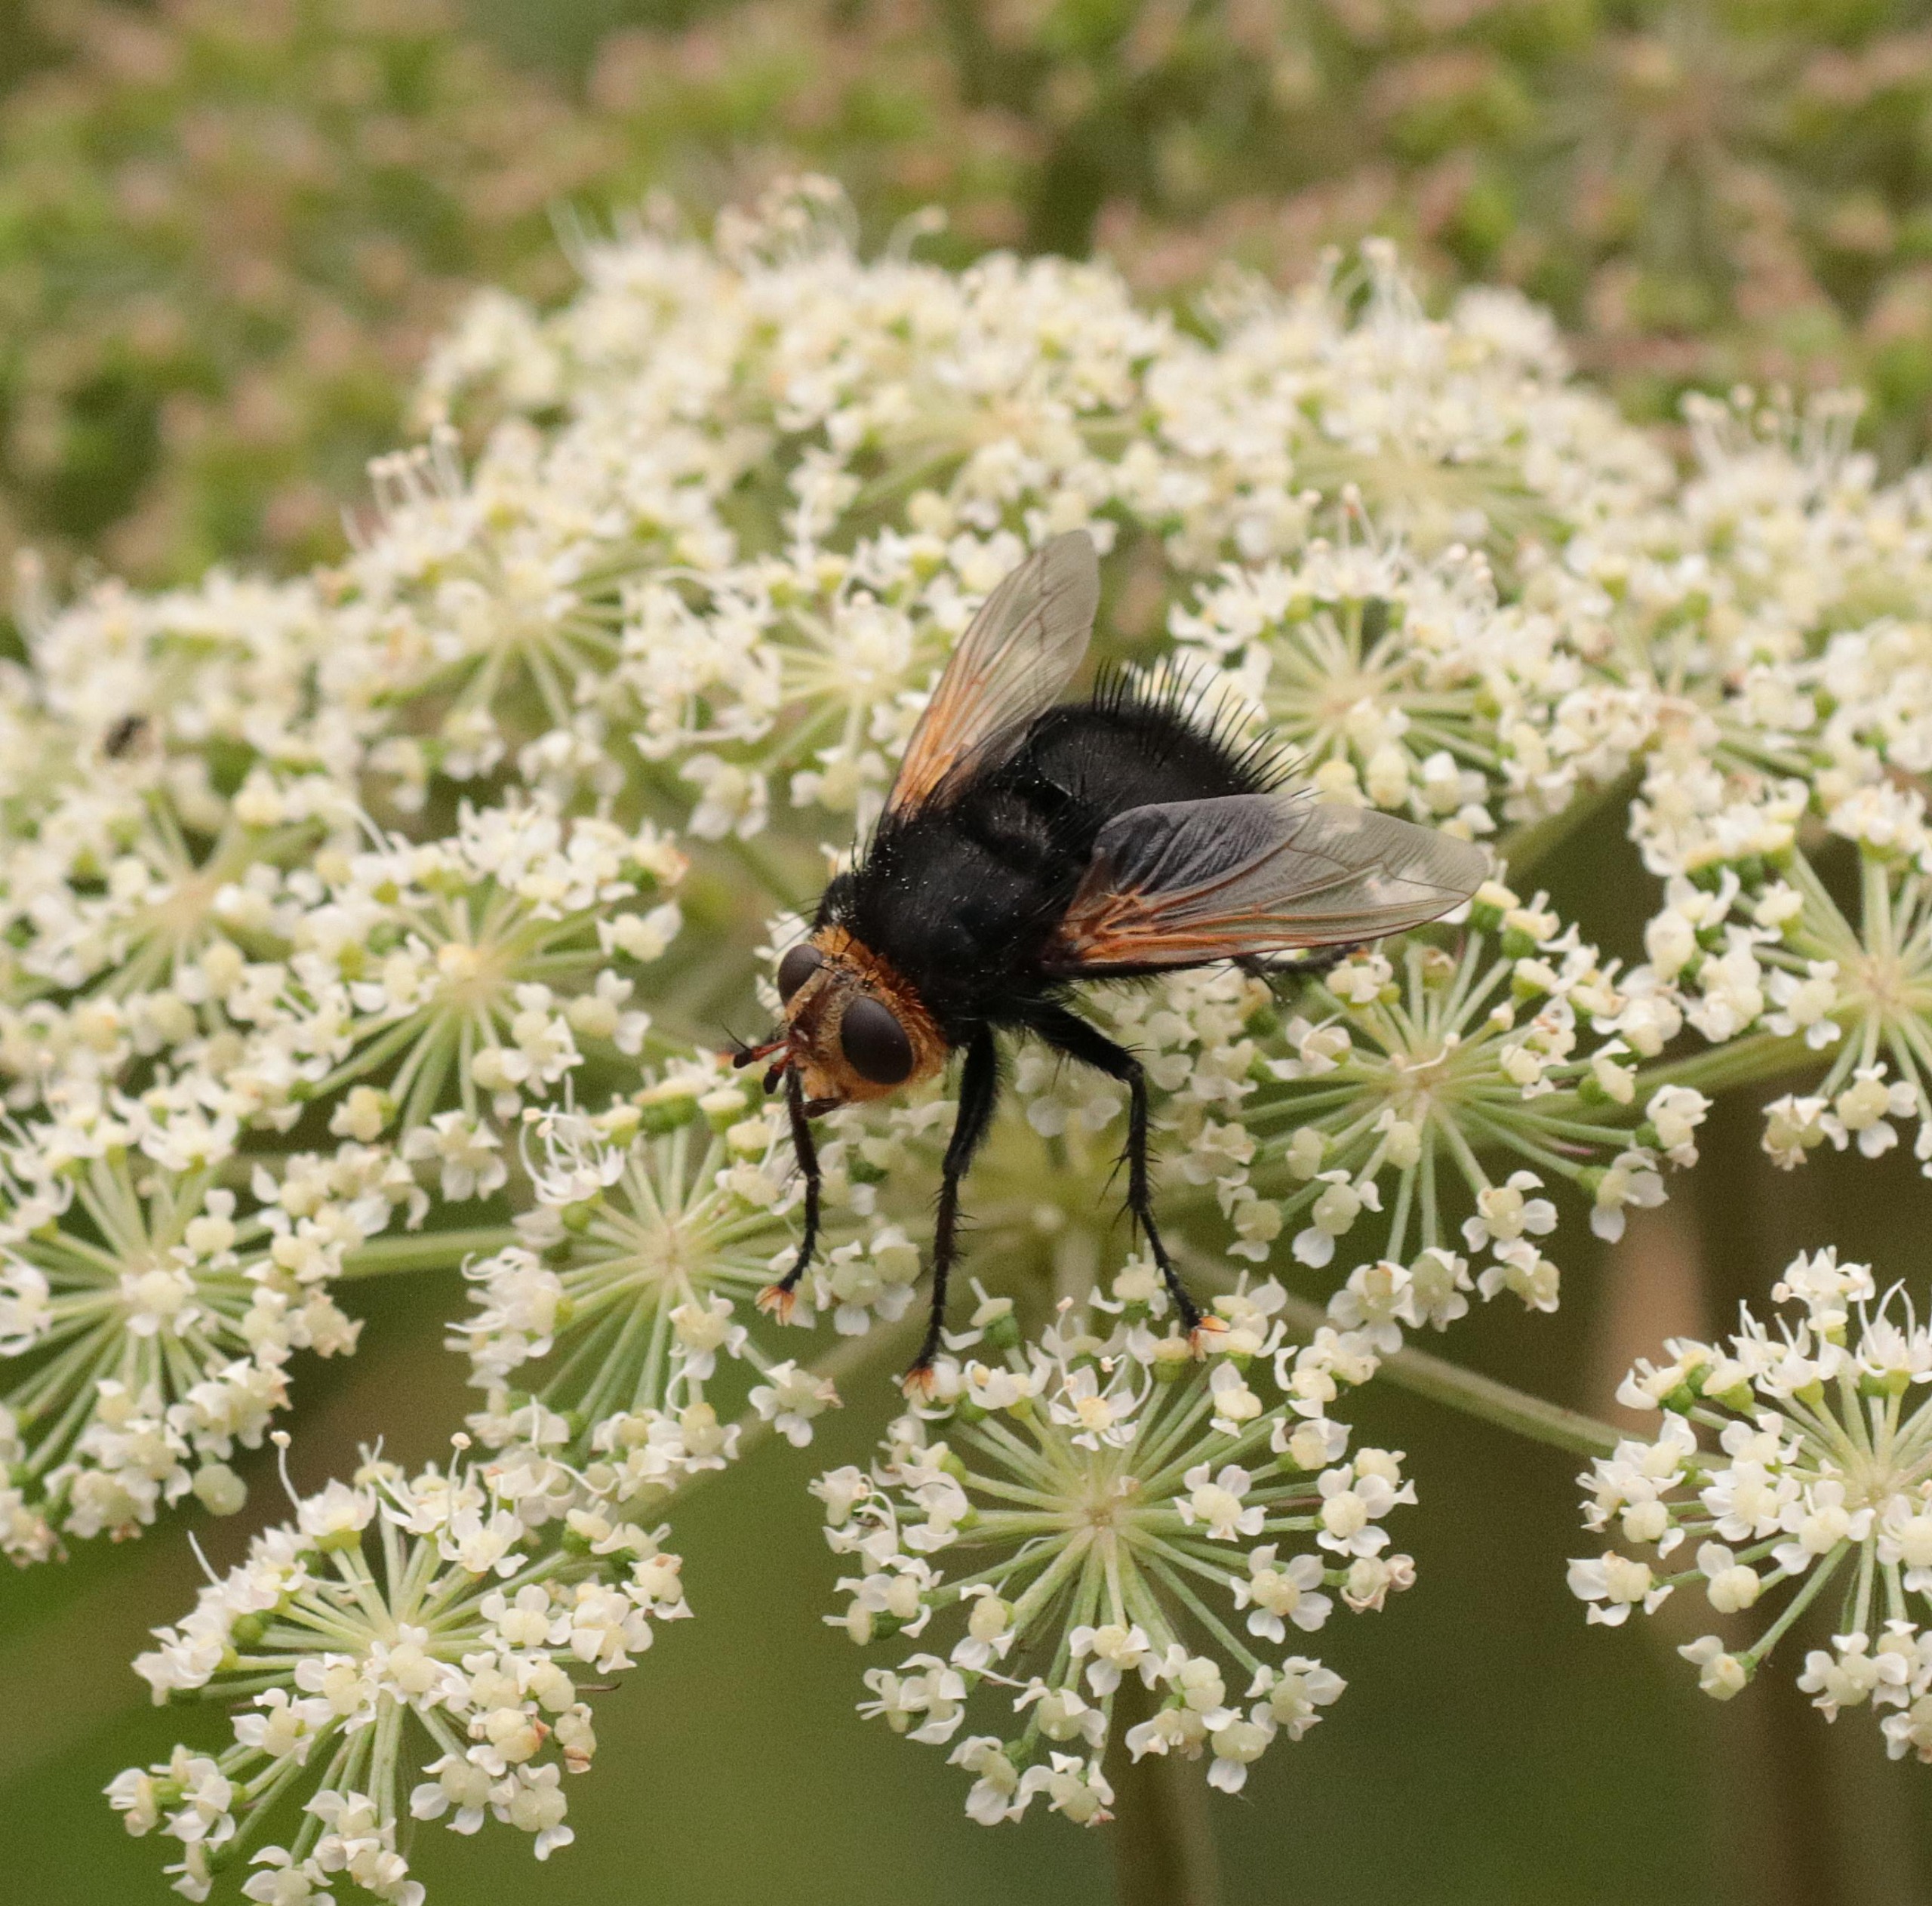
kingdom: Animalia
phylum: Arthropoda
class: Insecta
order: Diptera
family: Tachinidae
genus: Tachina
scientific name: Tachina grossa
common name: Kæmpefluen Harald
